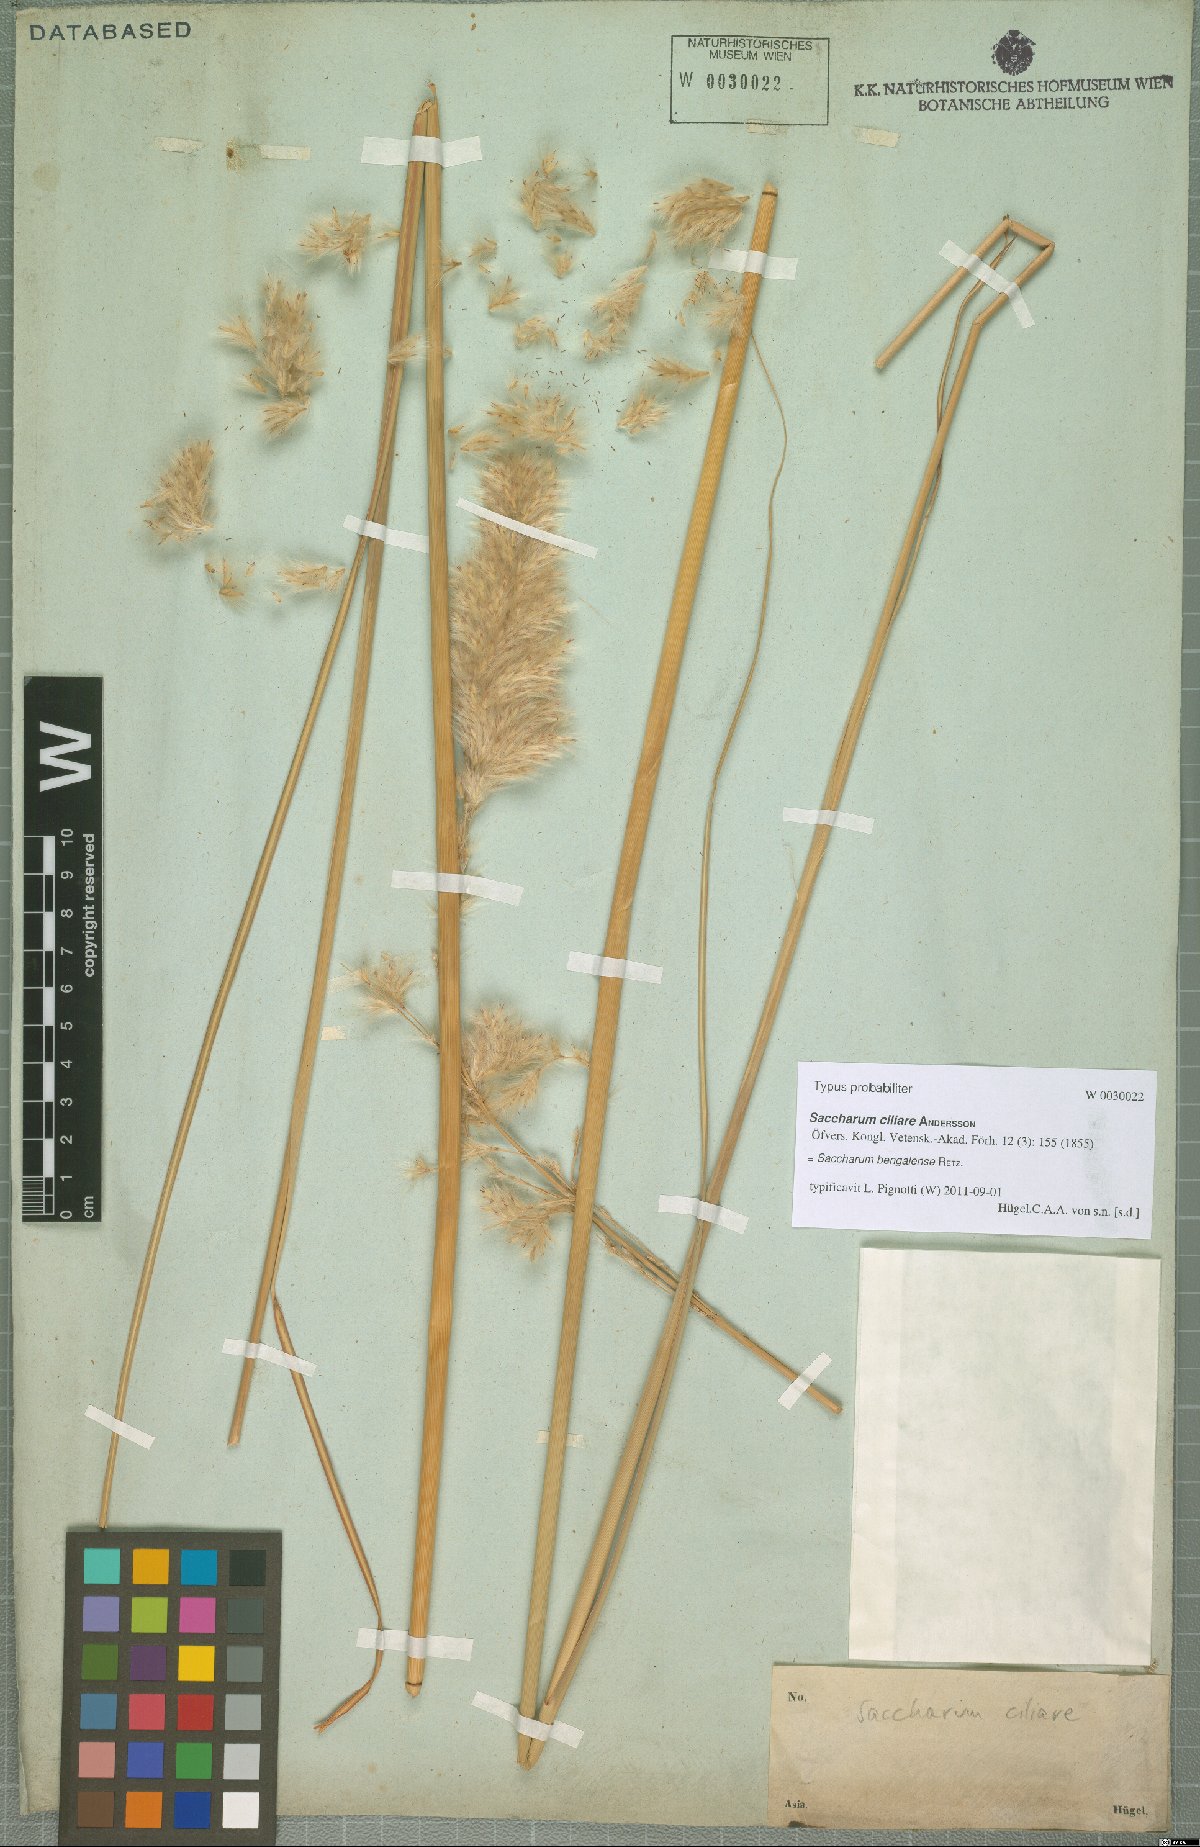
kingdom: Plantae
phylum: Tracheophyta
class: Liliopsida
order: Poales
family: Poaceae
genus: Tripidium
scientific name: Tripidium bengalense
